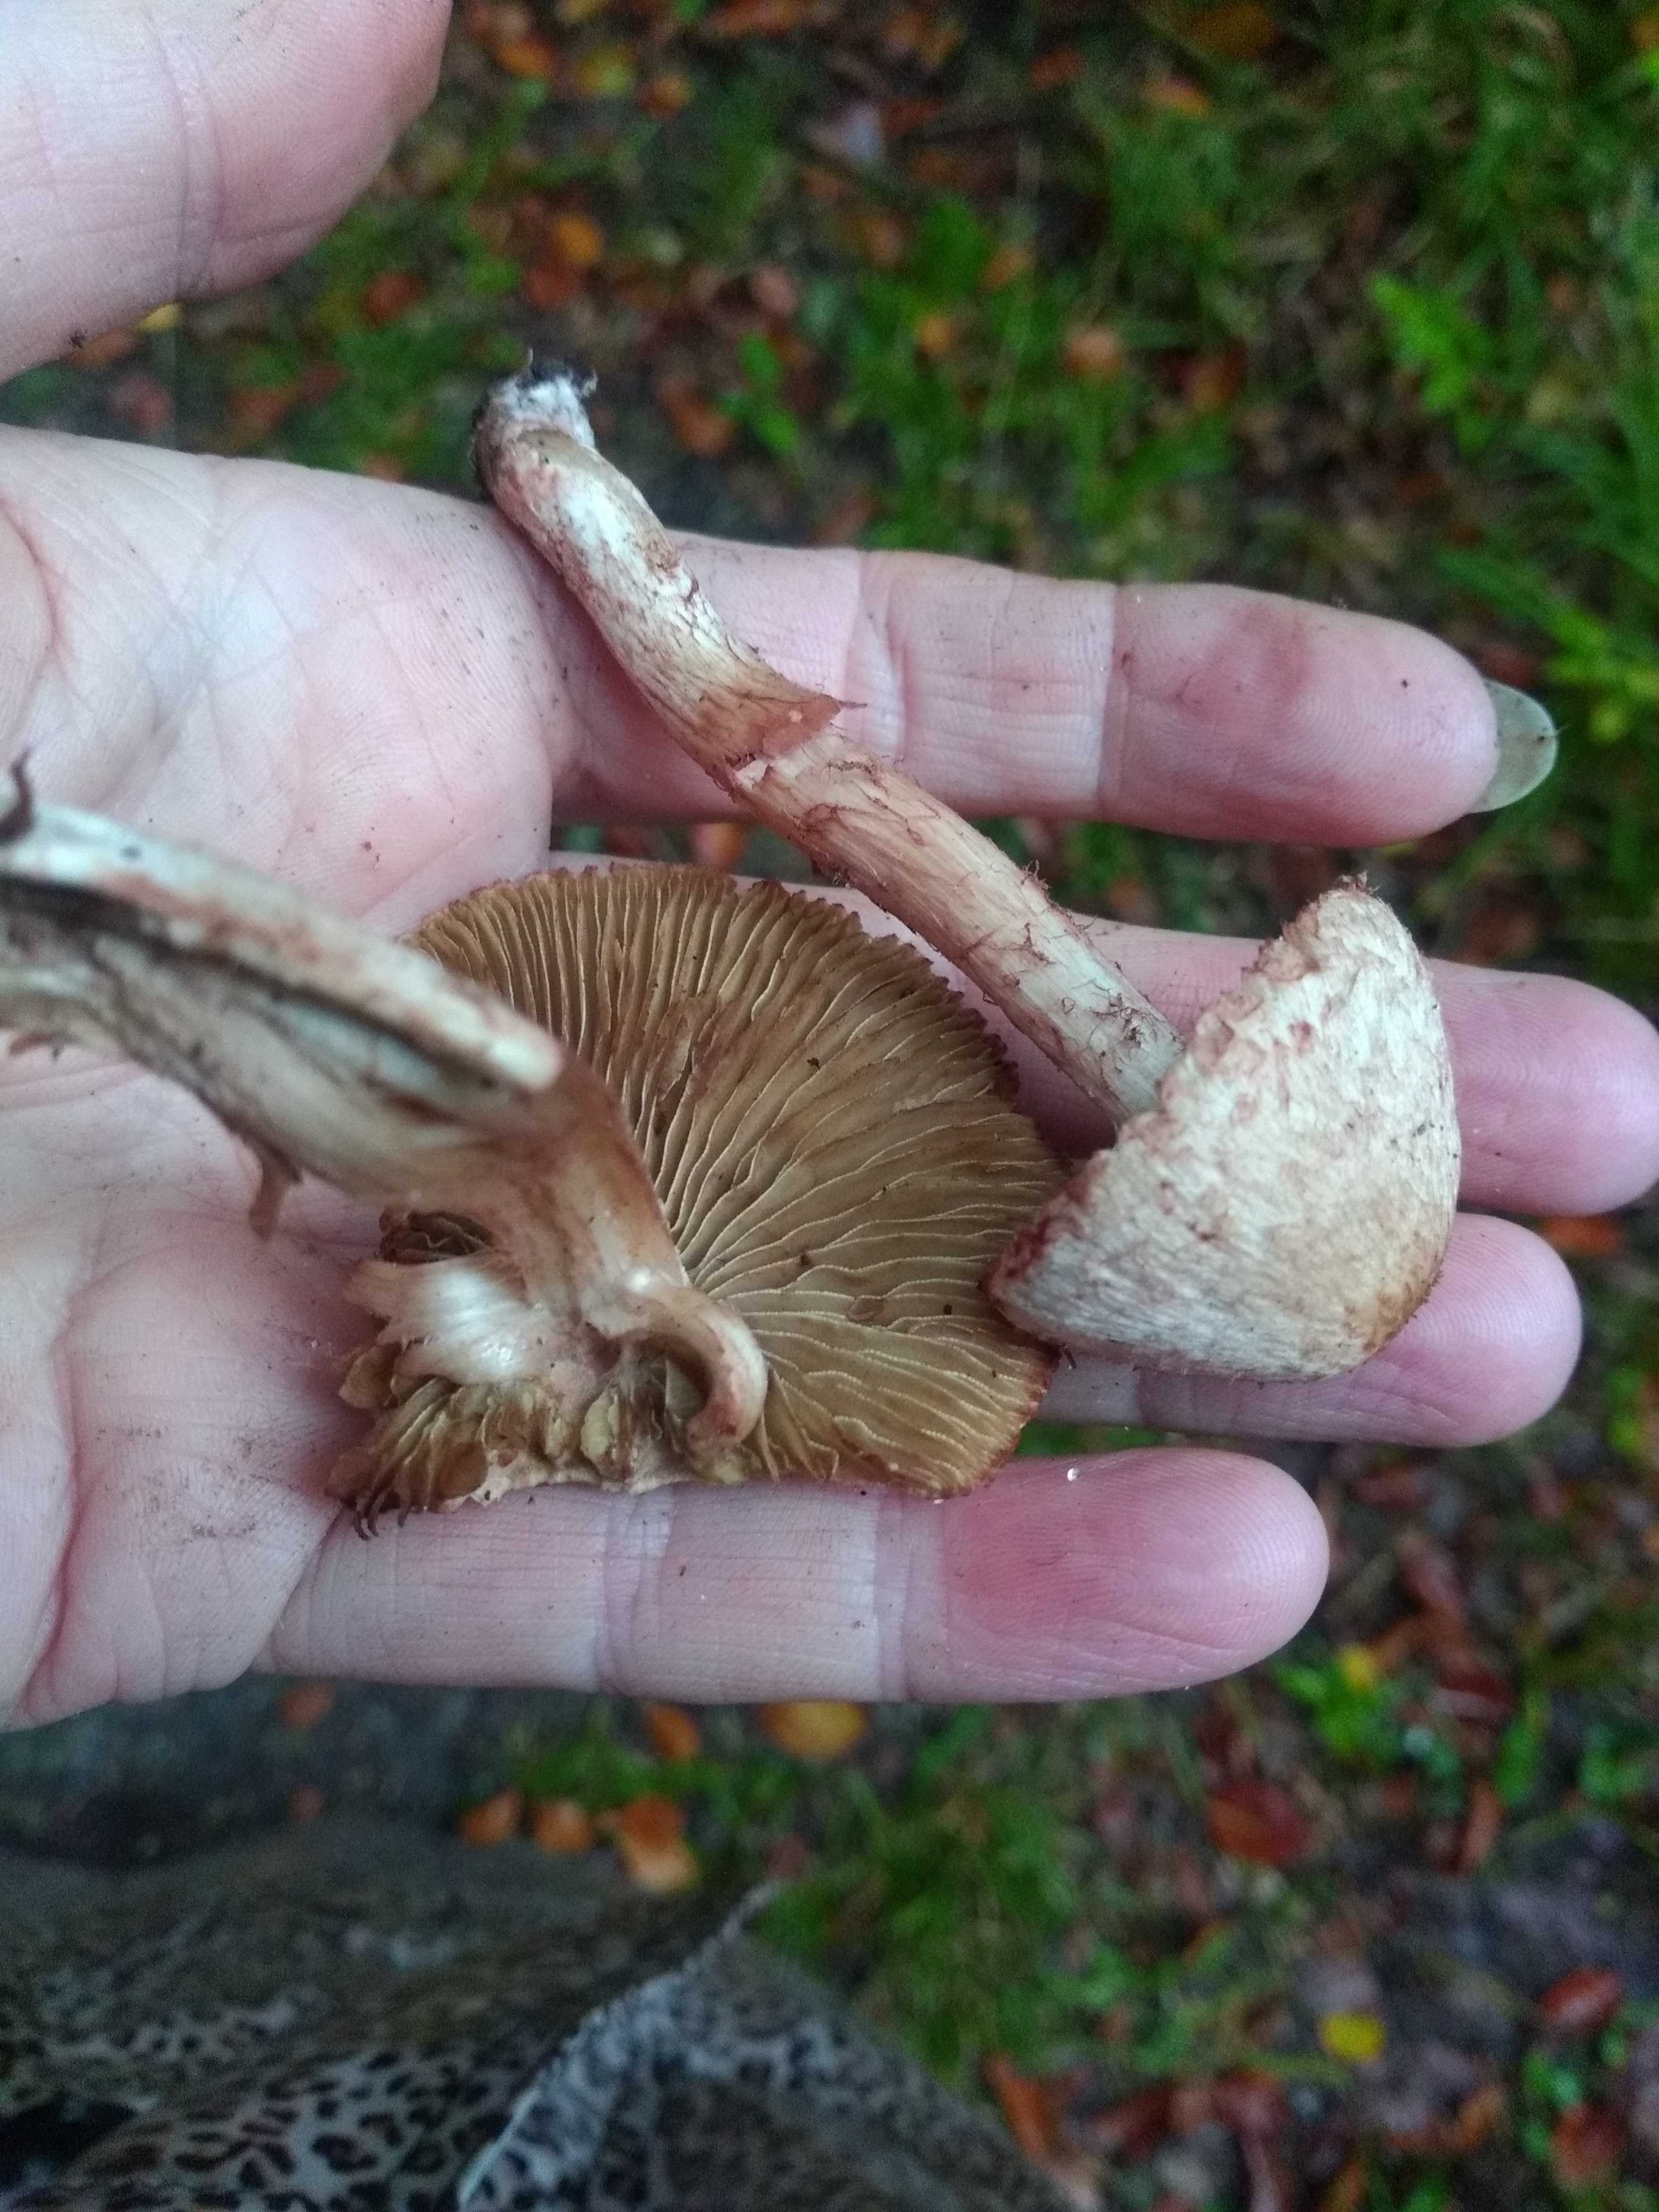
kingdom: Fungi
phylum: Basidiomycota
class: Agaricomycetes
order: Agaricales
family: Inocybaceae
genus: Inosperma
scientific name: Inosperma bongardii
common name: Bongards trævlhat
